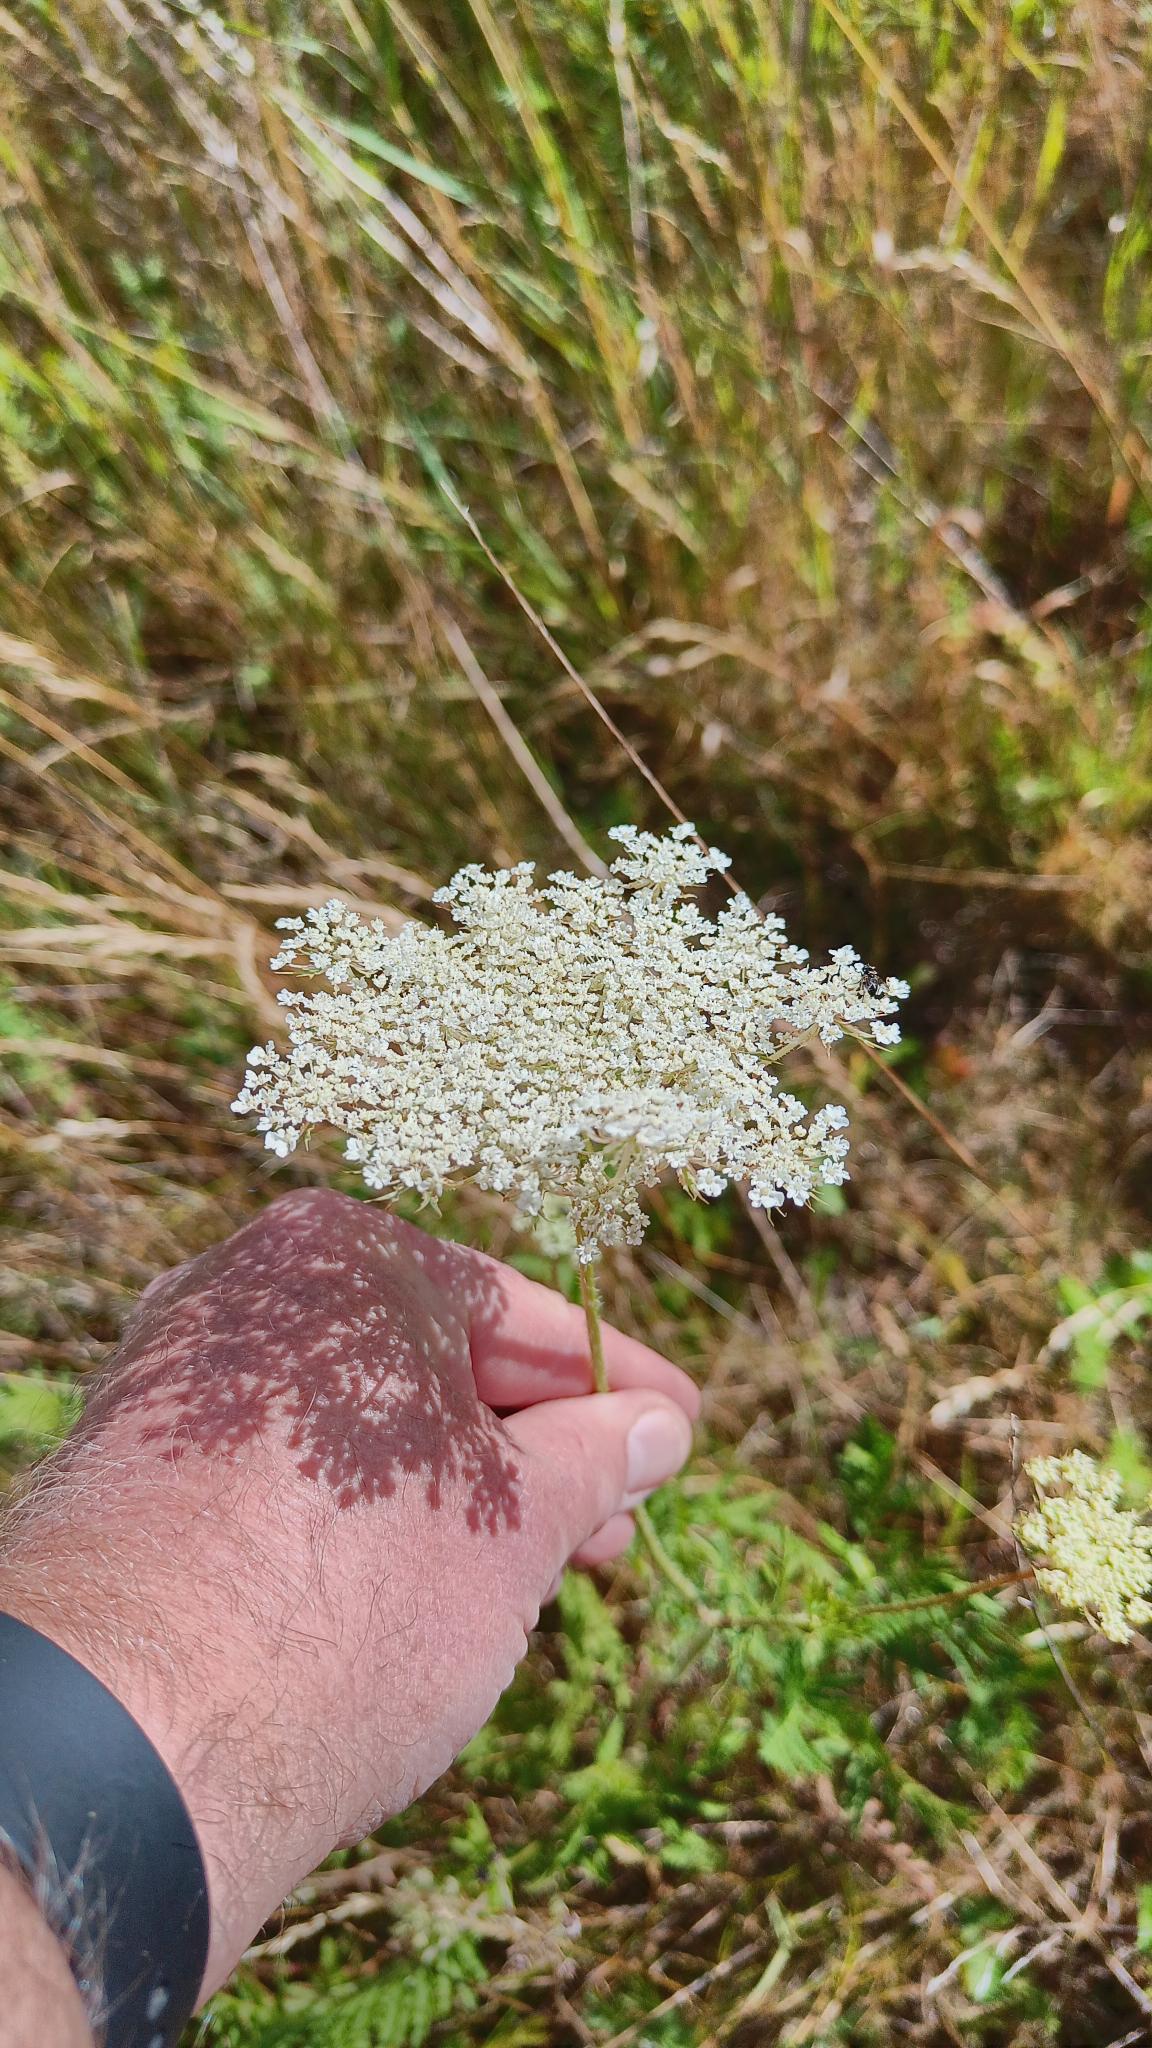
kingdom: Plantae
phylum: Tracheophyta
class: Magnoliopsida
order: Apiales
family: Apiaceae
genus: Daucus
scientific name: Daucus carota
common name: Gulerod
